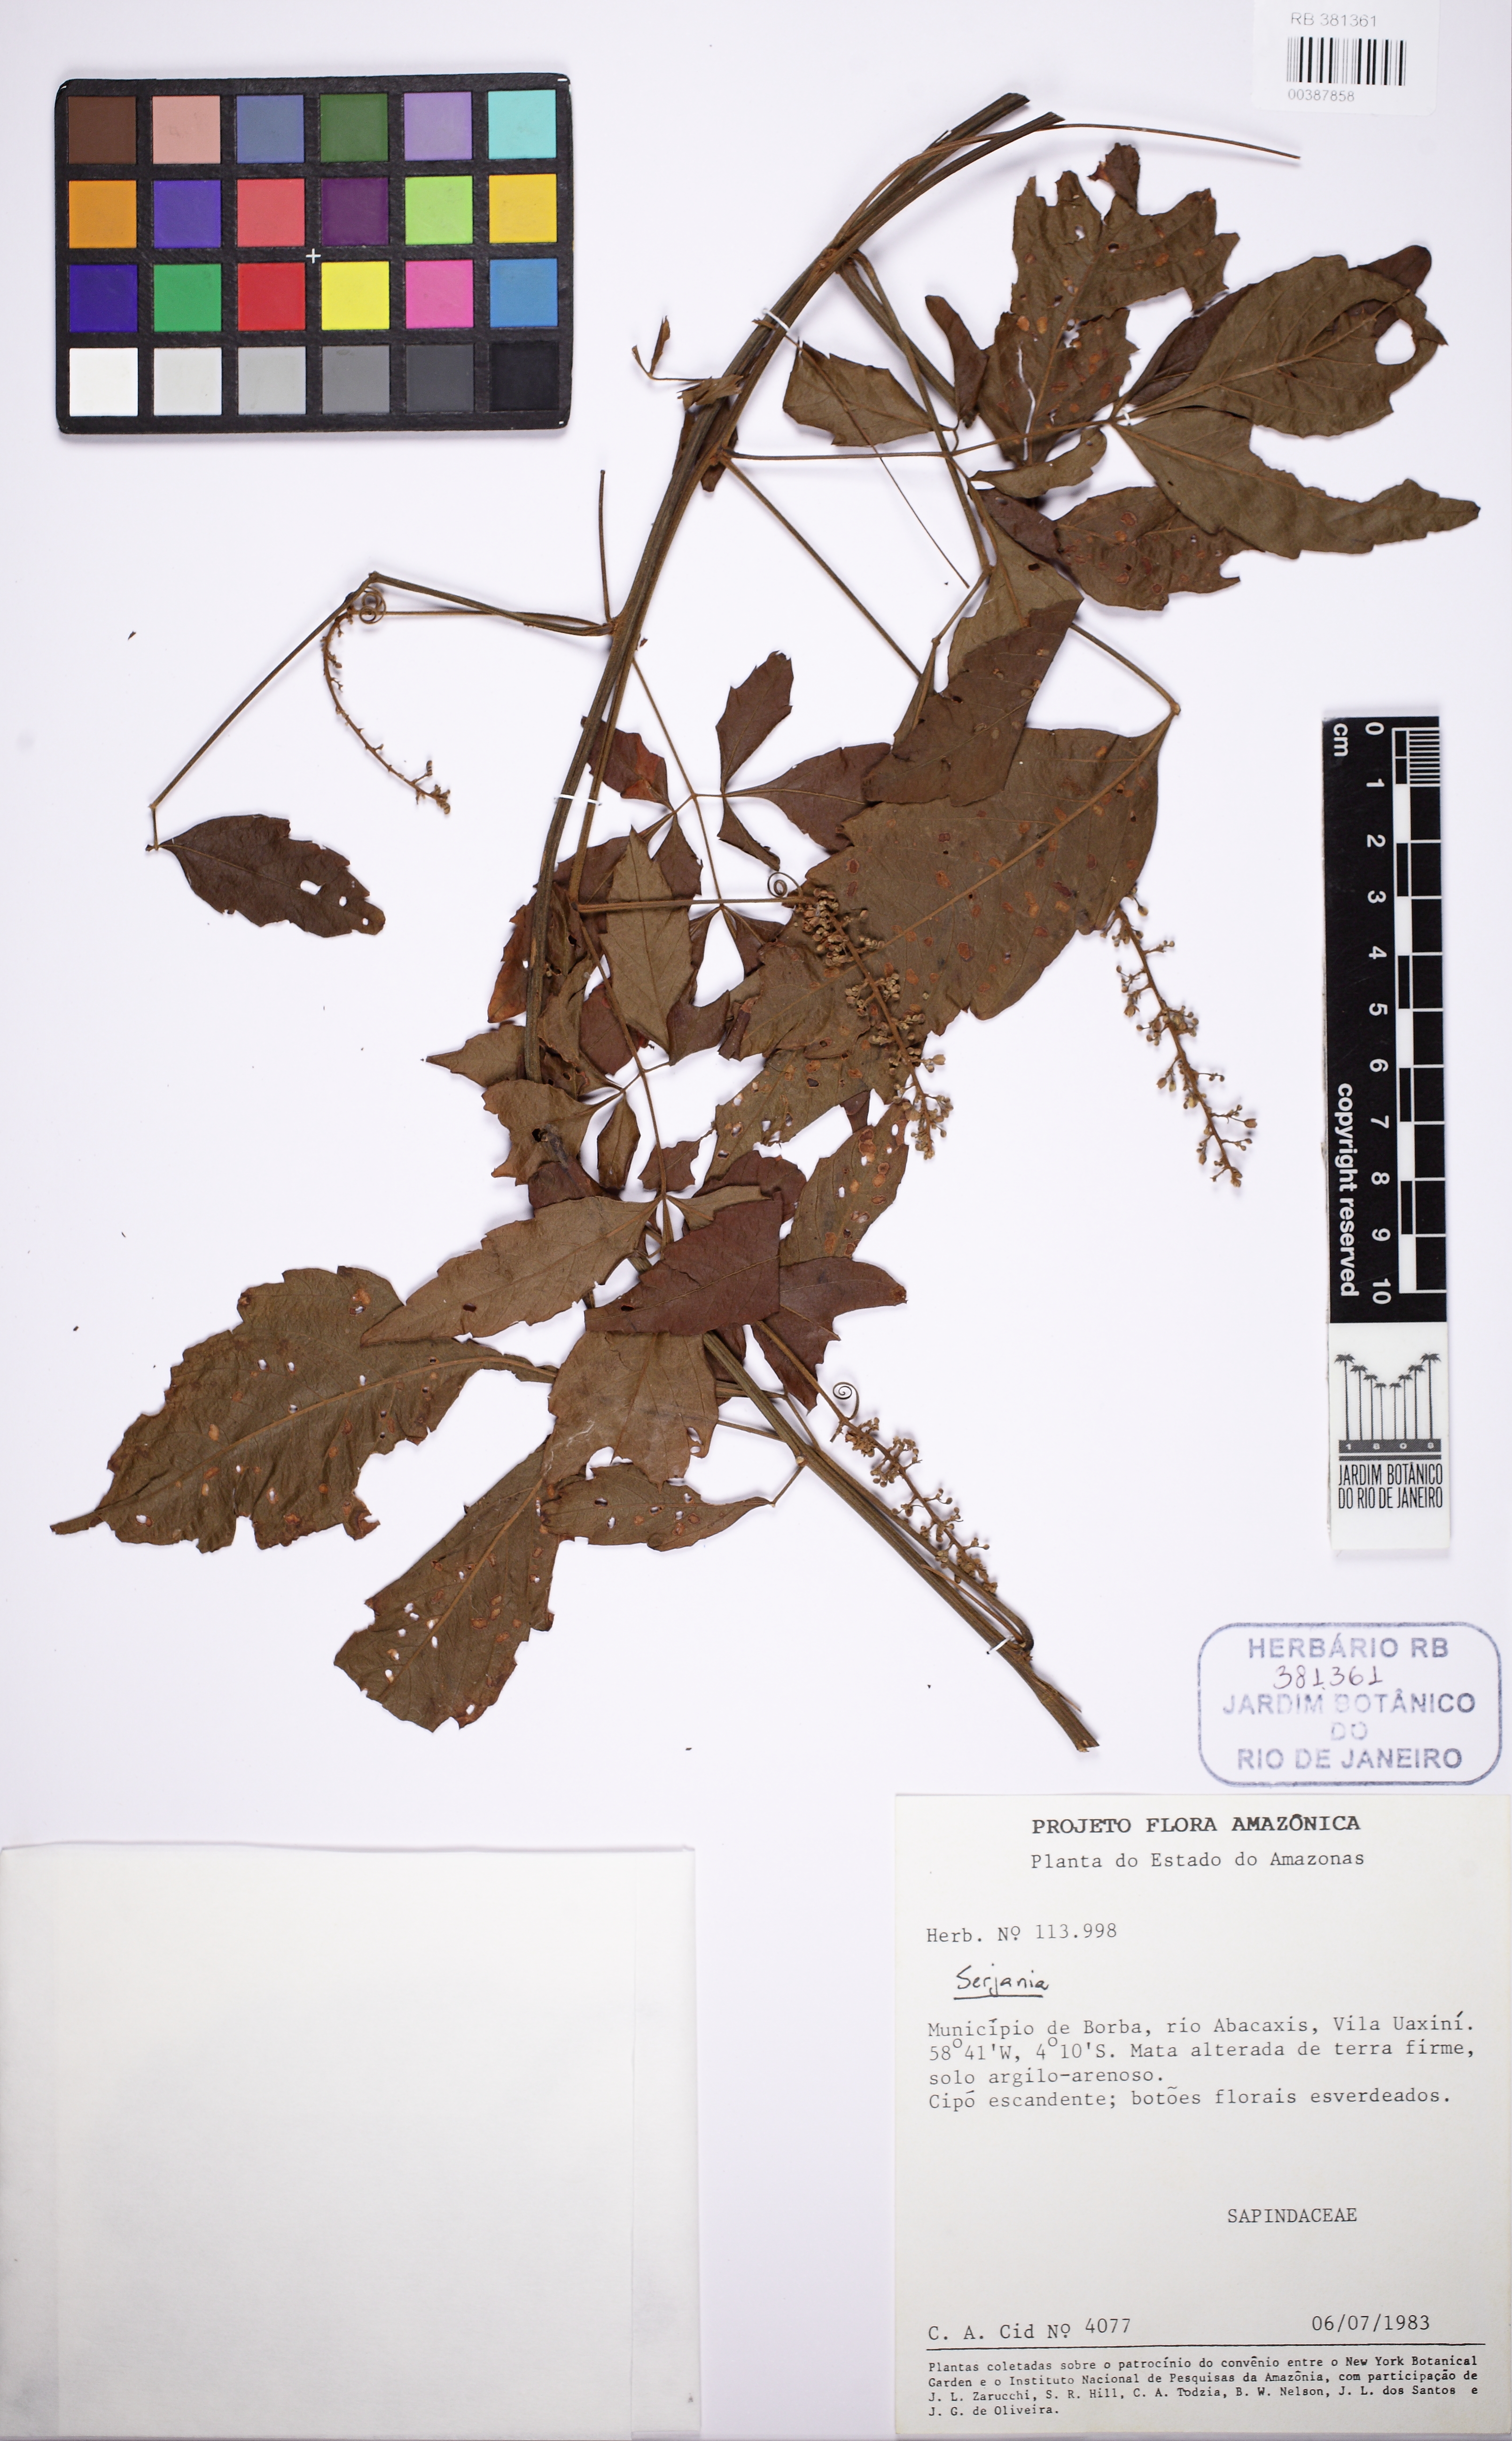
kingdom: Plantae
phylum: Tracheophyta
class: Magnoliopsida
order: Sapindales
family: Sapindaceae
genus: Serjania
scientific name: Serjania
